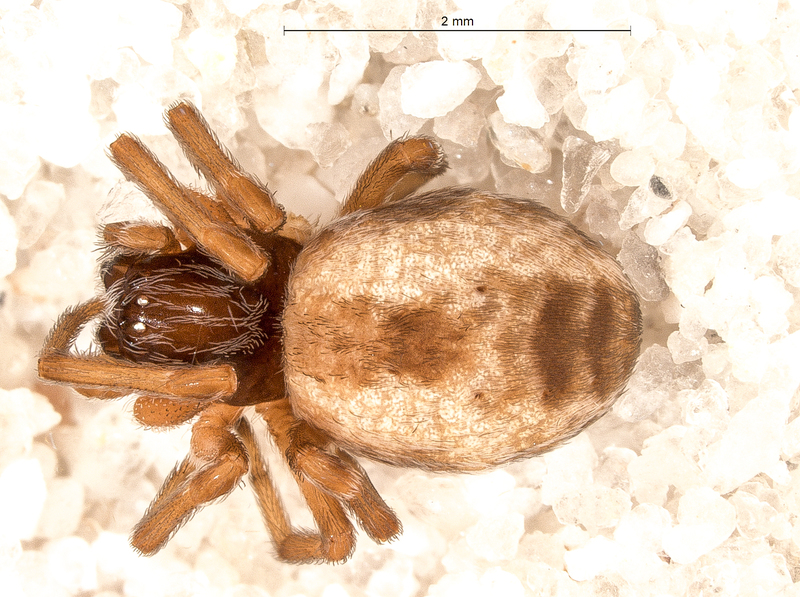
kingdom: Animalia
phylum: Arthropoda
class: Arachnida
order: Araneae
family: Dictynidae
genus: Dictyna
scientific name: Dictyna arundinacea
